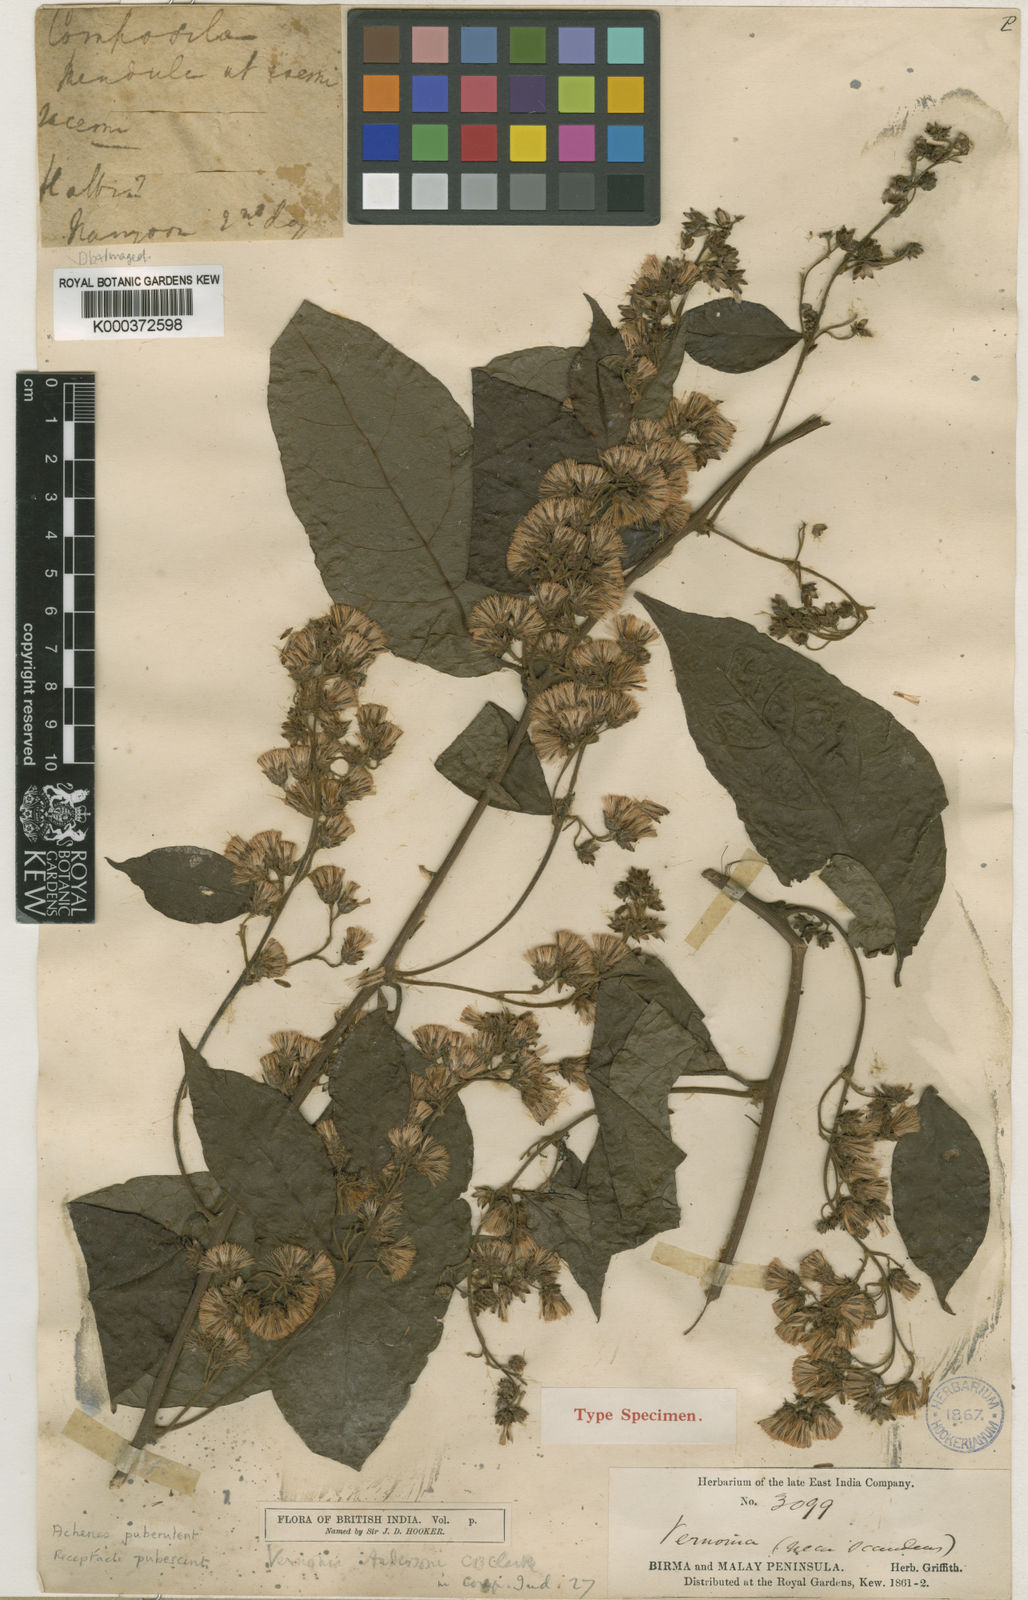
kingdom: Plantae
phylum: Tracheophyta
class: Magnoliopsida
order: Asterales
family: Asteraceae
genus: Decaneuropsis
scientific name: Decaneuropsis cumingiana
